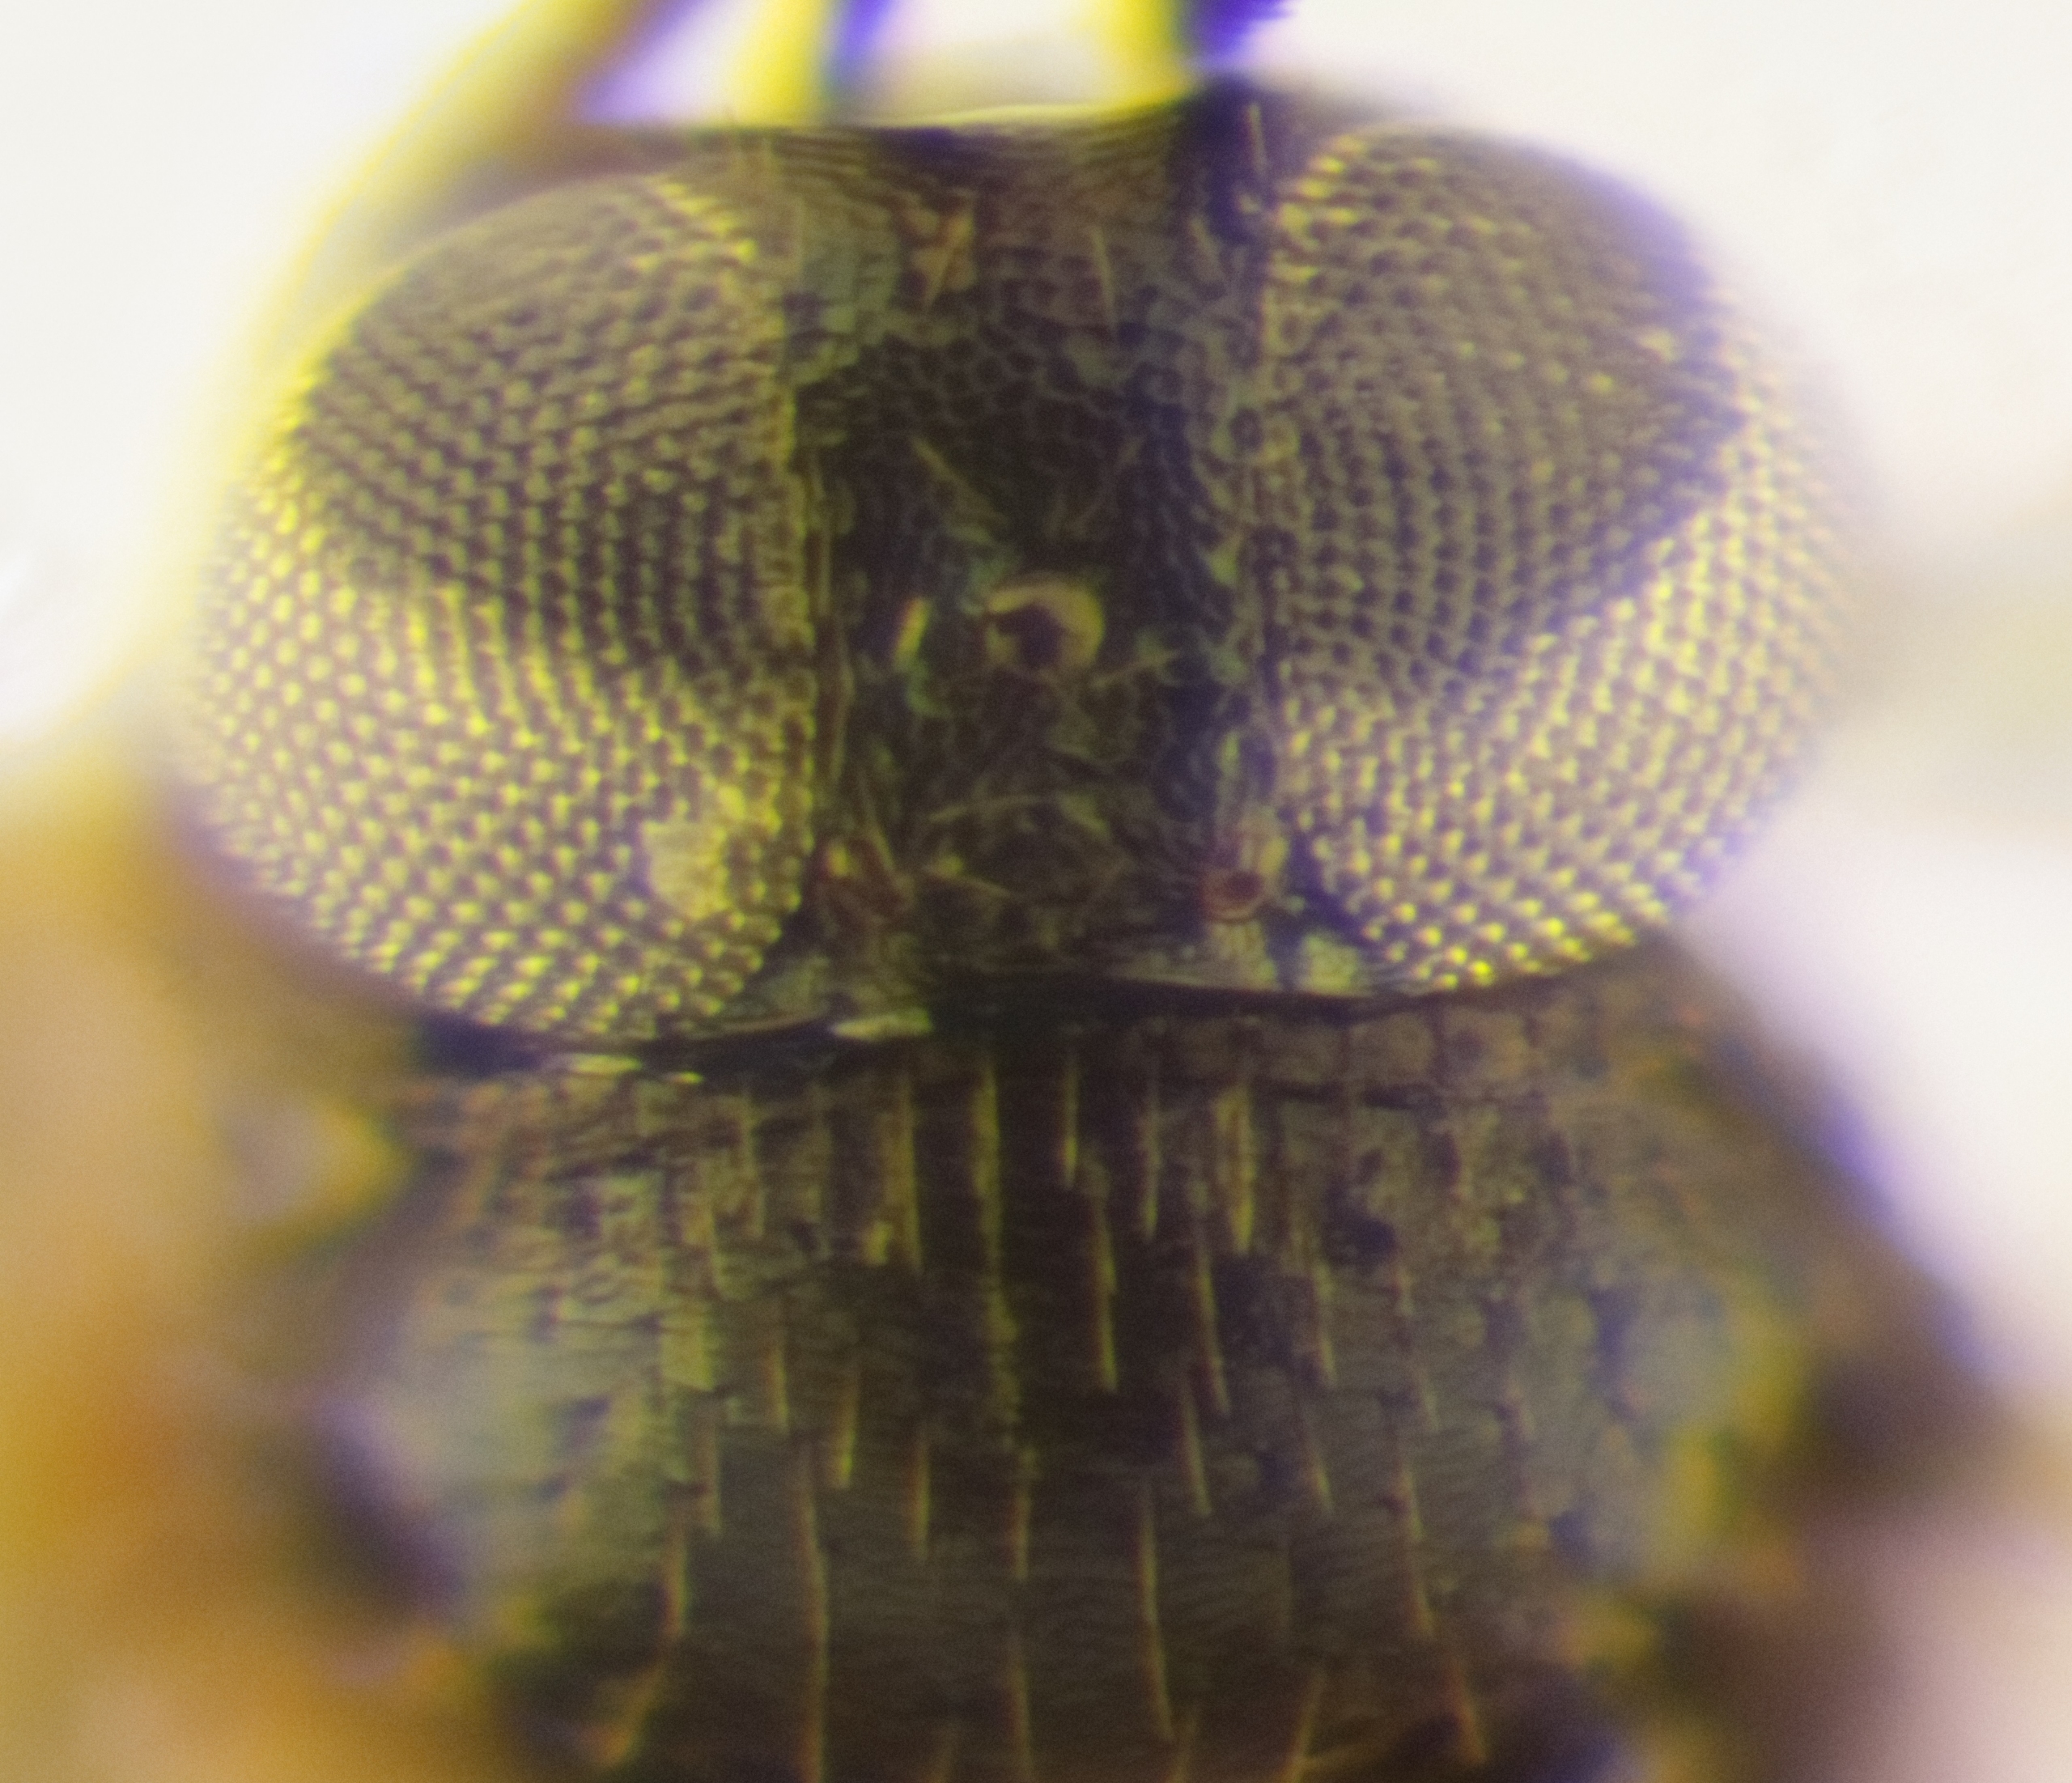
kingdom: Animalia
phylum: Arthropoda
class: Insecta
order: Hymenoptera
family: Encyrtidae
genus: Syrphophagus
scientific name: Syrphophagus mamitus
